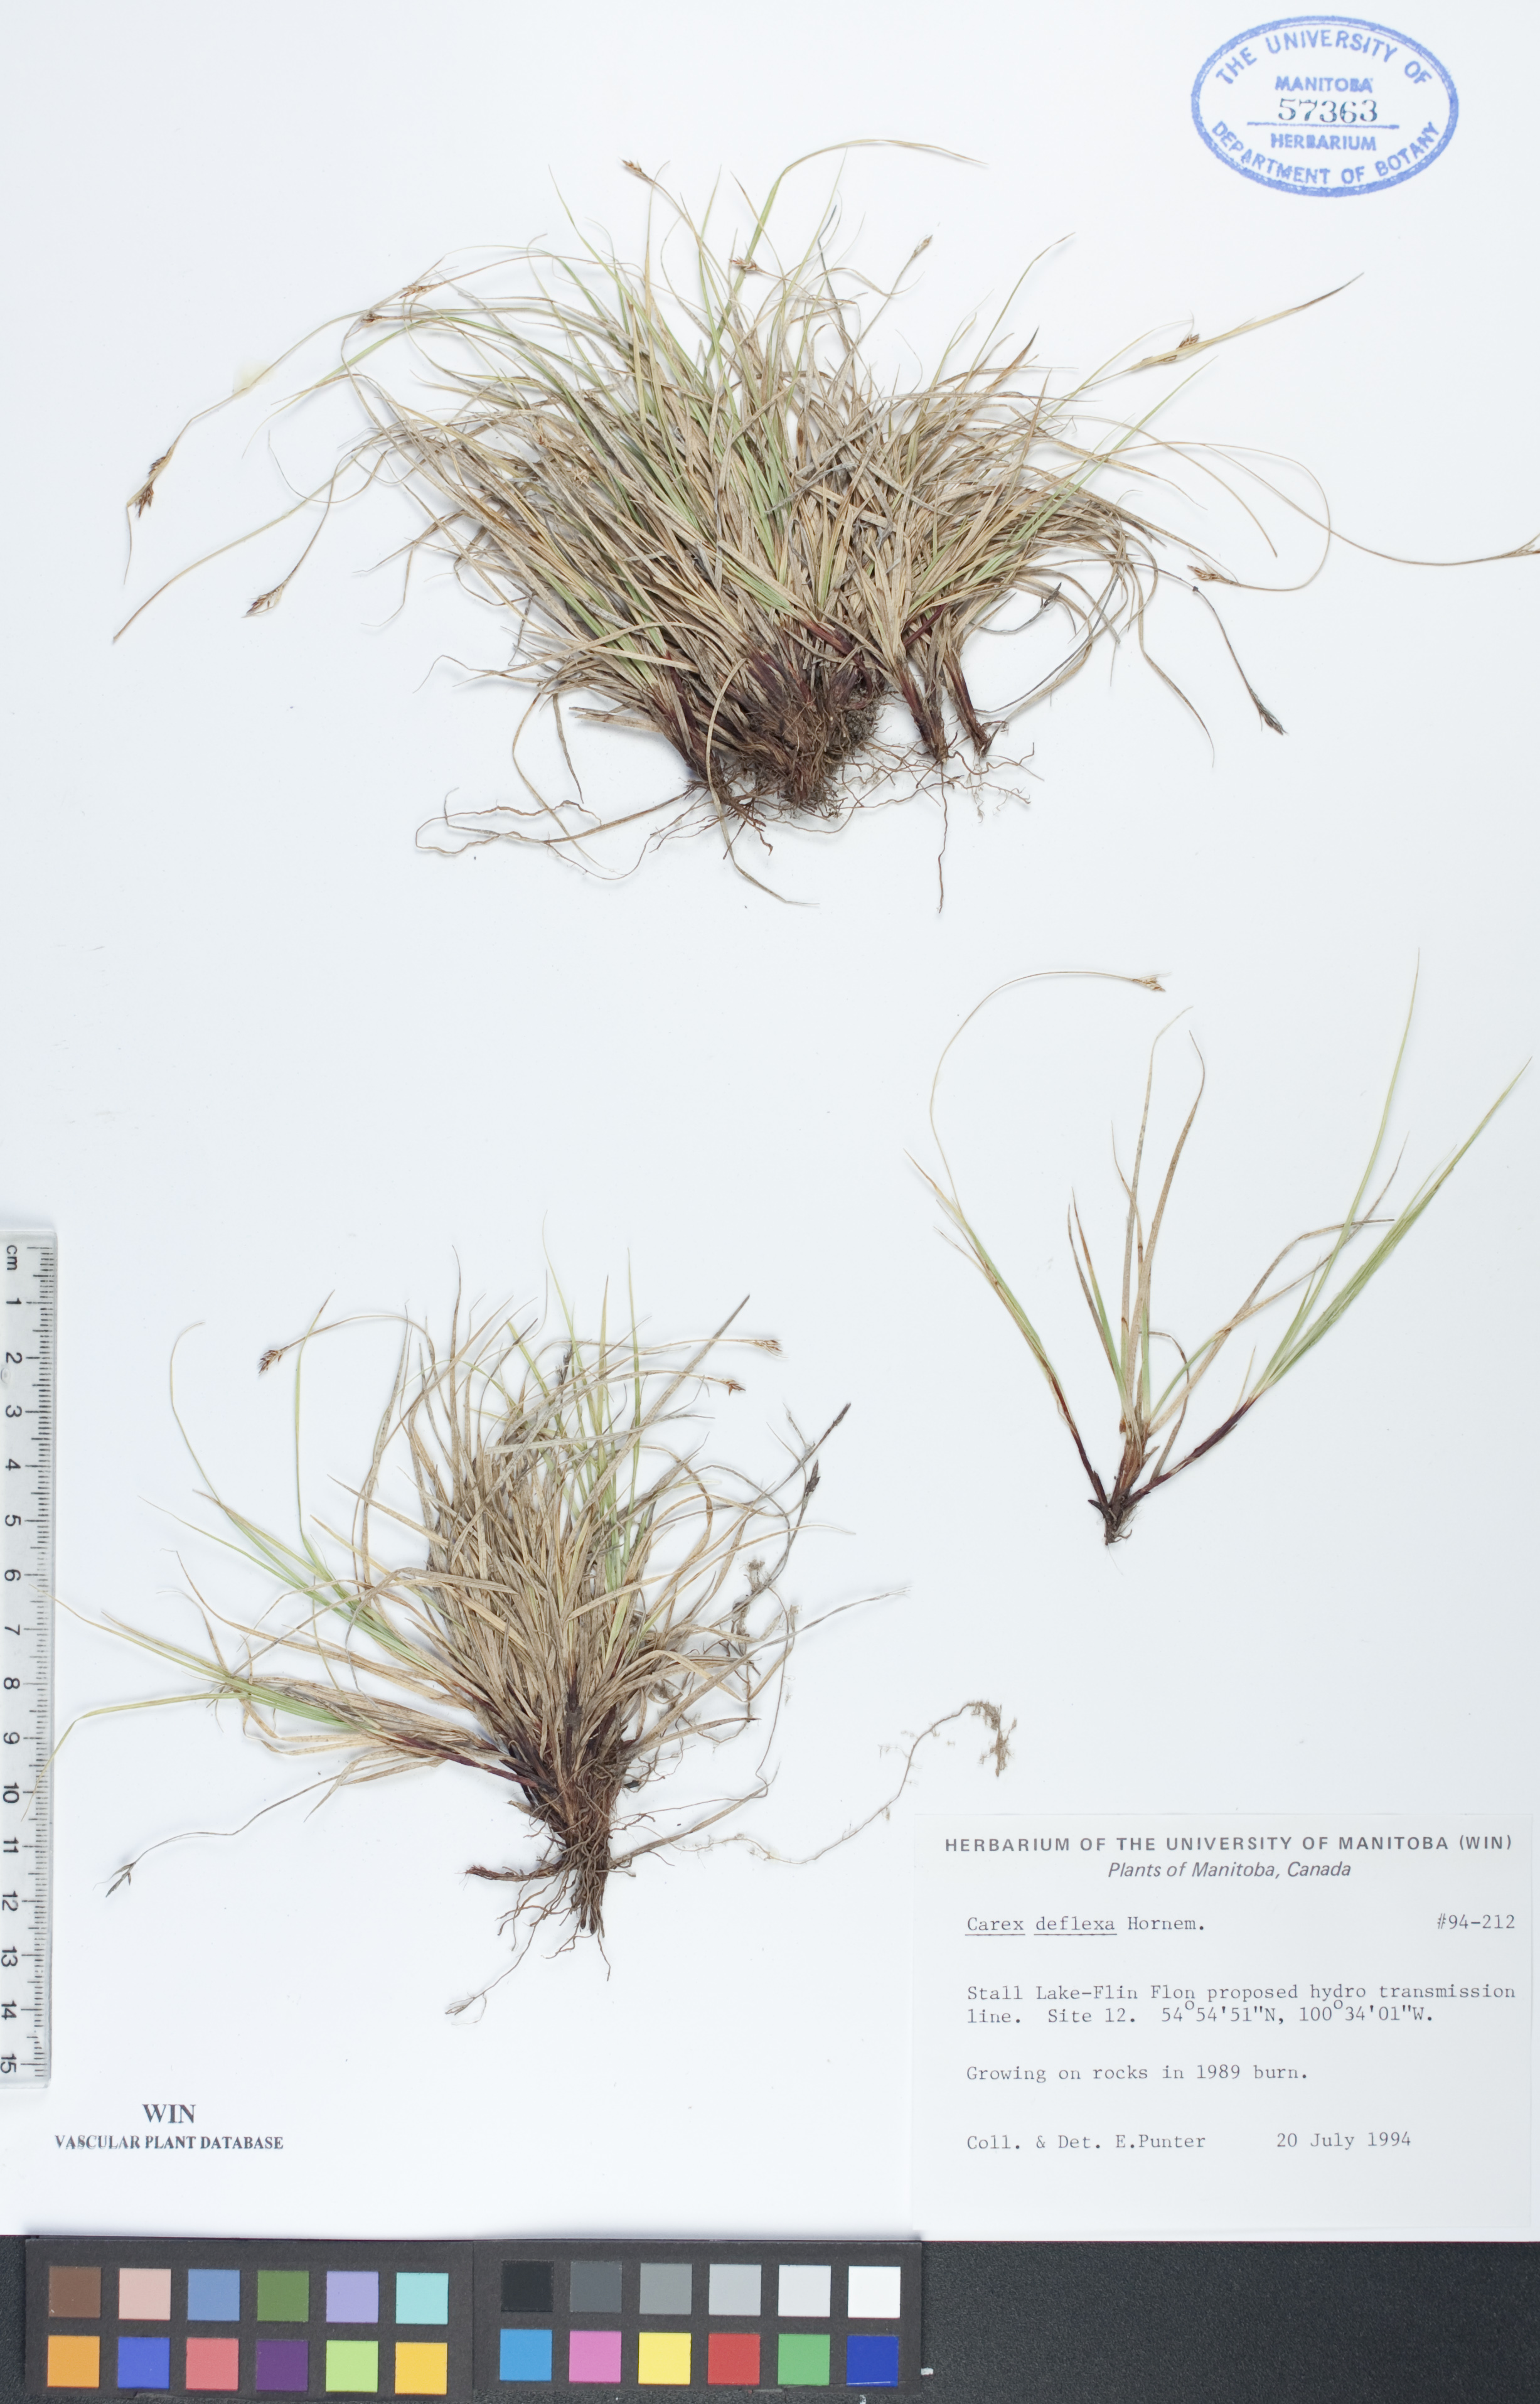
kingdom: Plantae
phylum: Tracheophyta
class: Liliopsida
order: Poales
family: Cyperaceae
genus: Carex
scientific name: Carex deflexa
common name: Bent northern sedge
